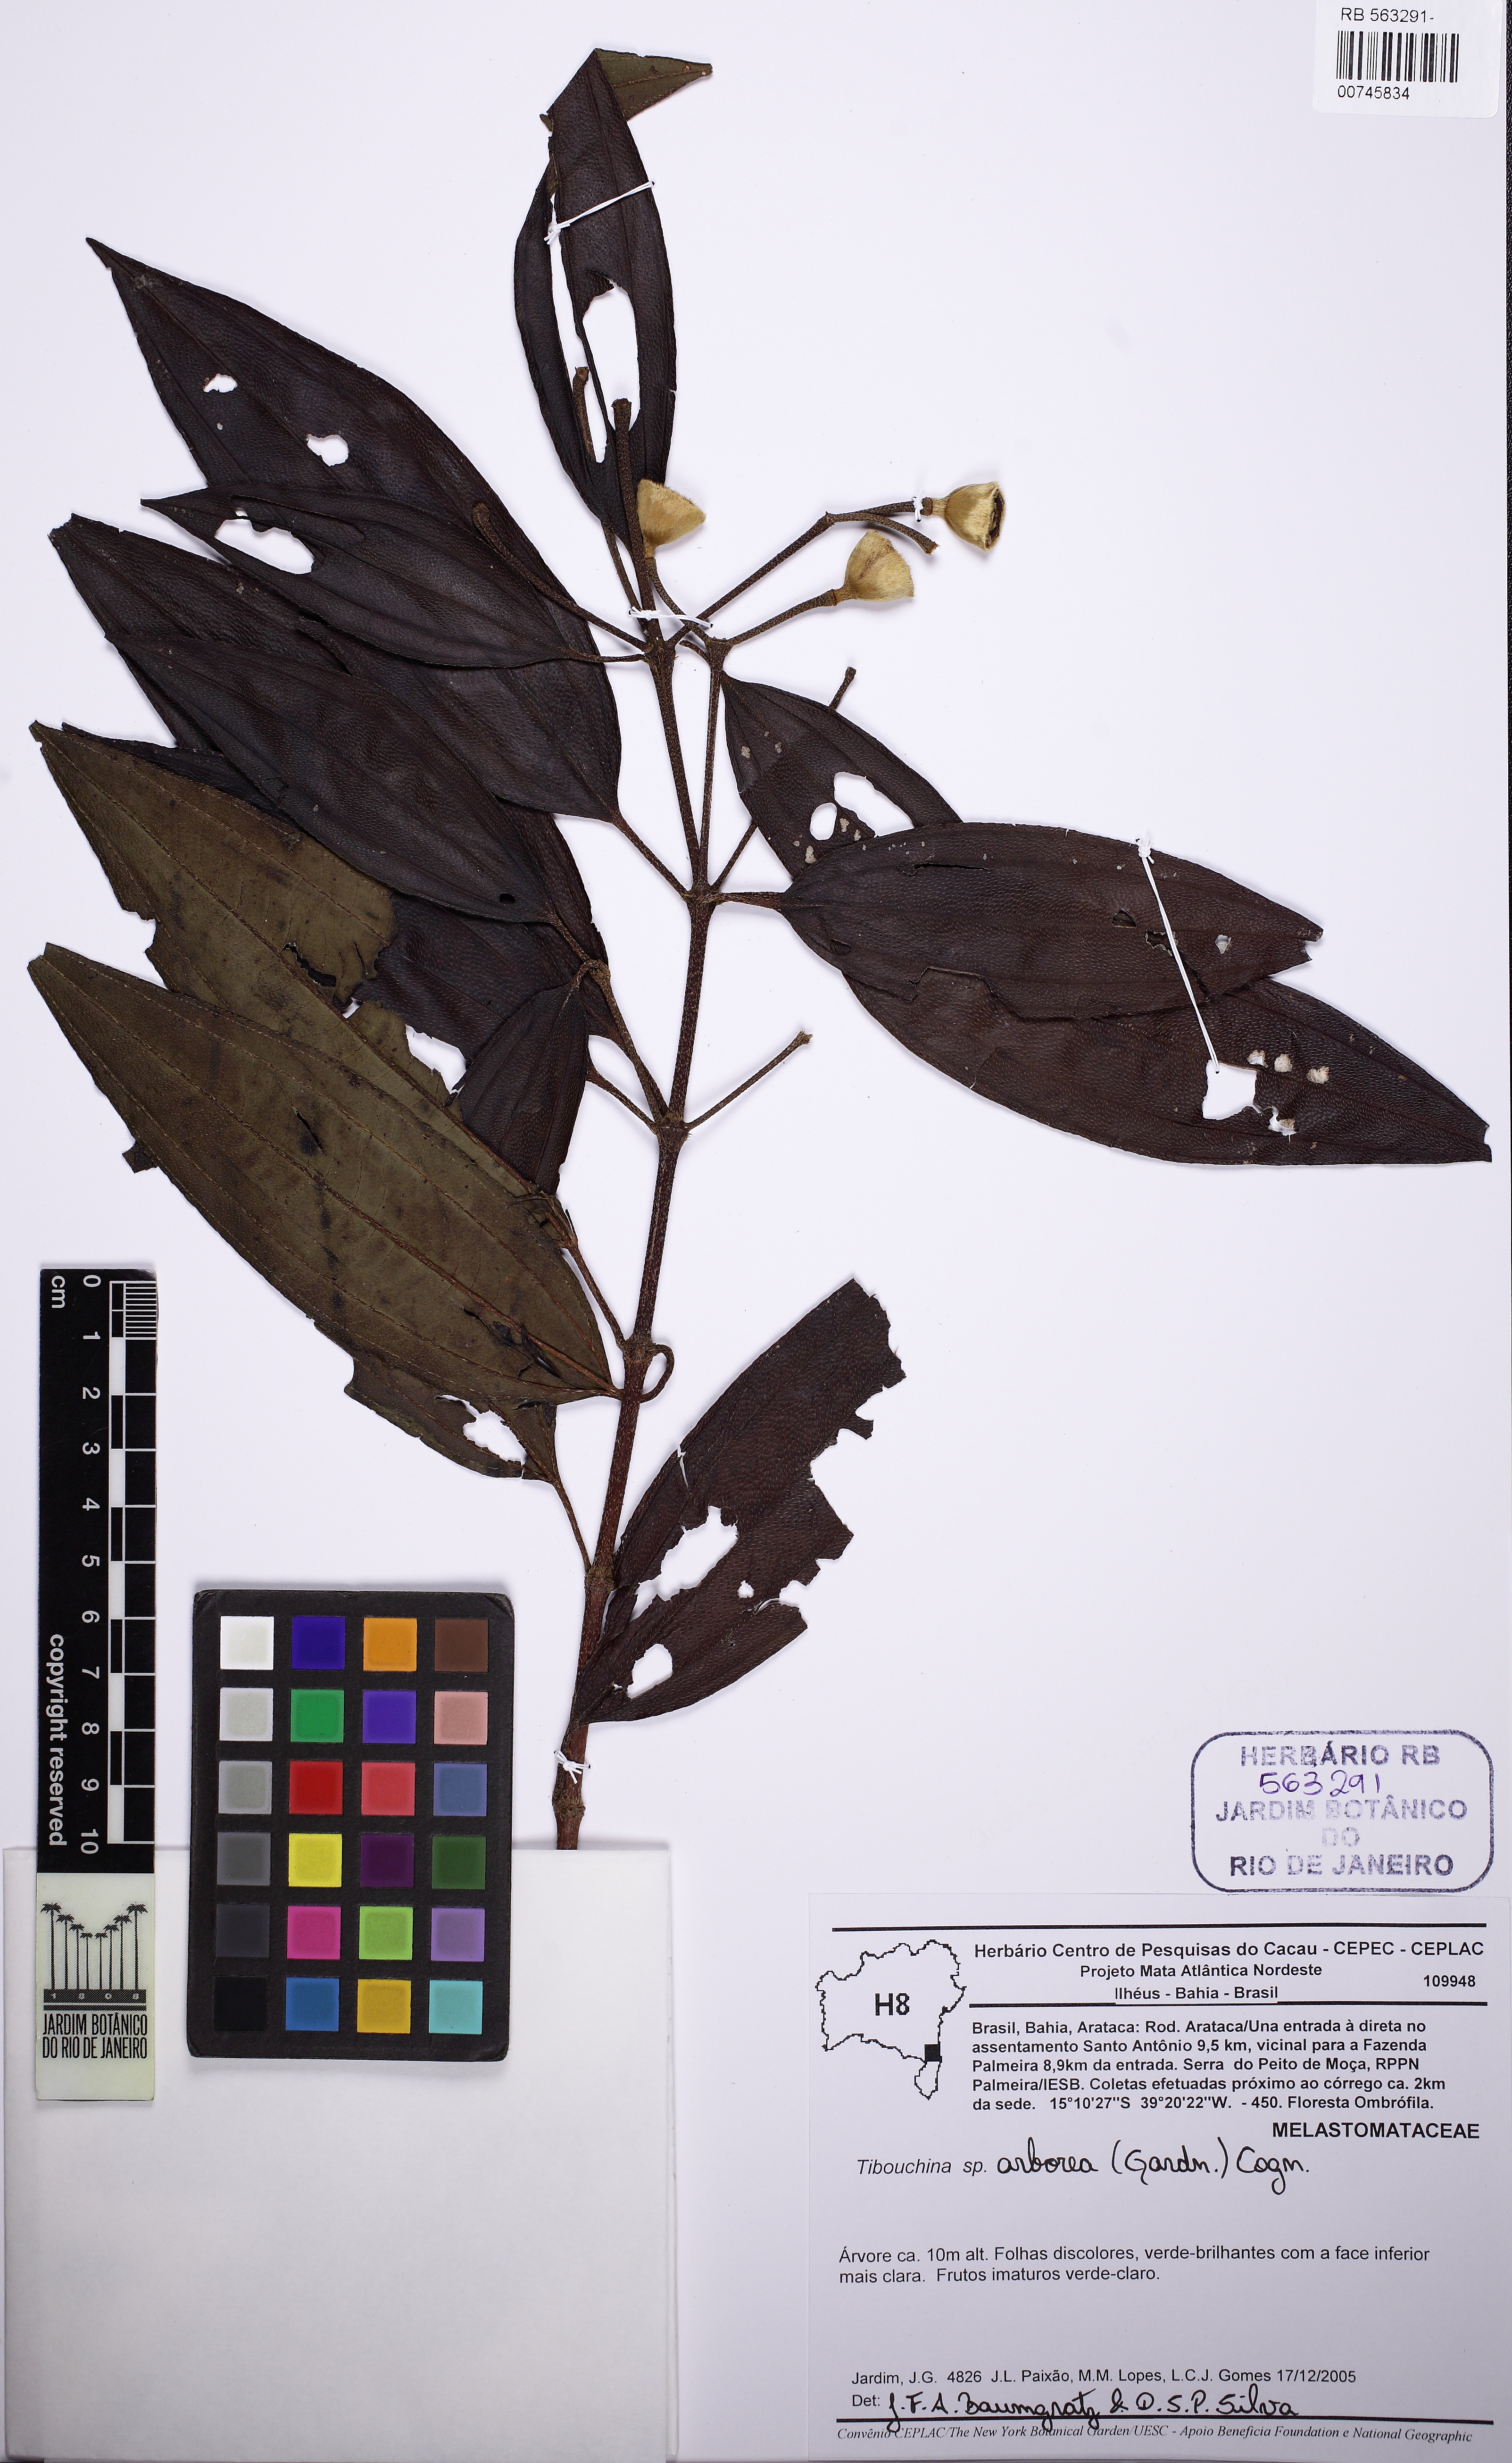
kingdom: Plantae
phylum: Tracheophyta
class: Magnoliopsida
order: Myrtales
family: Melastomataceae
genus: Pleroma
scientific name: Pleroma arboreum
